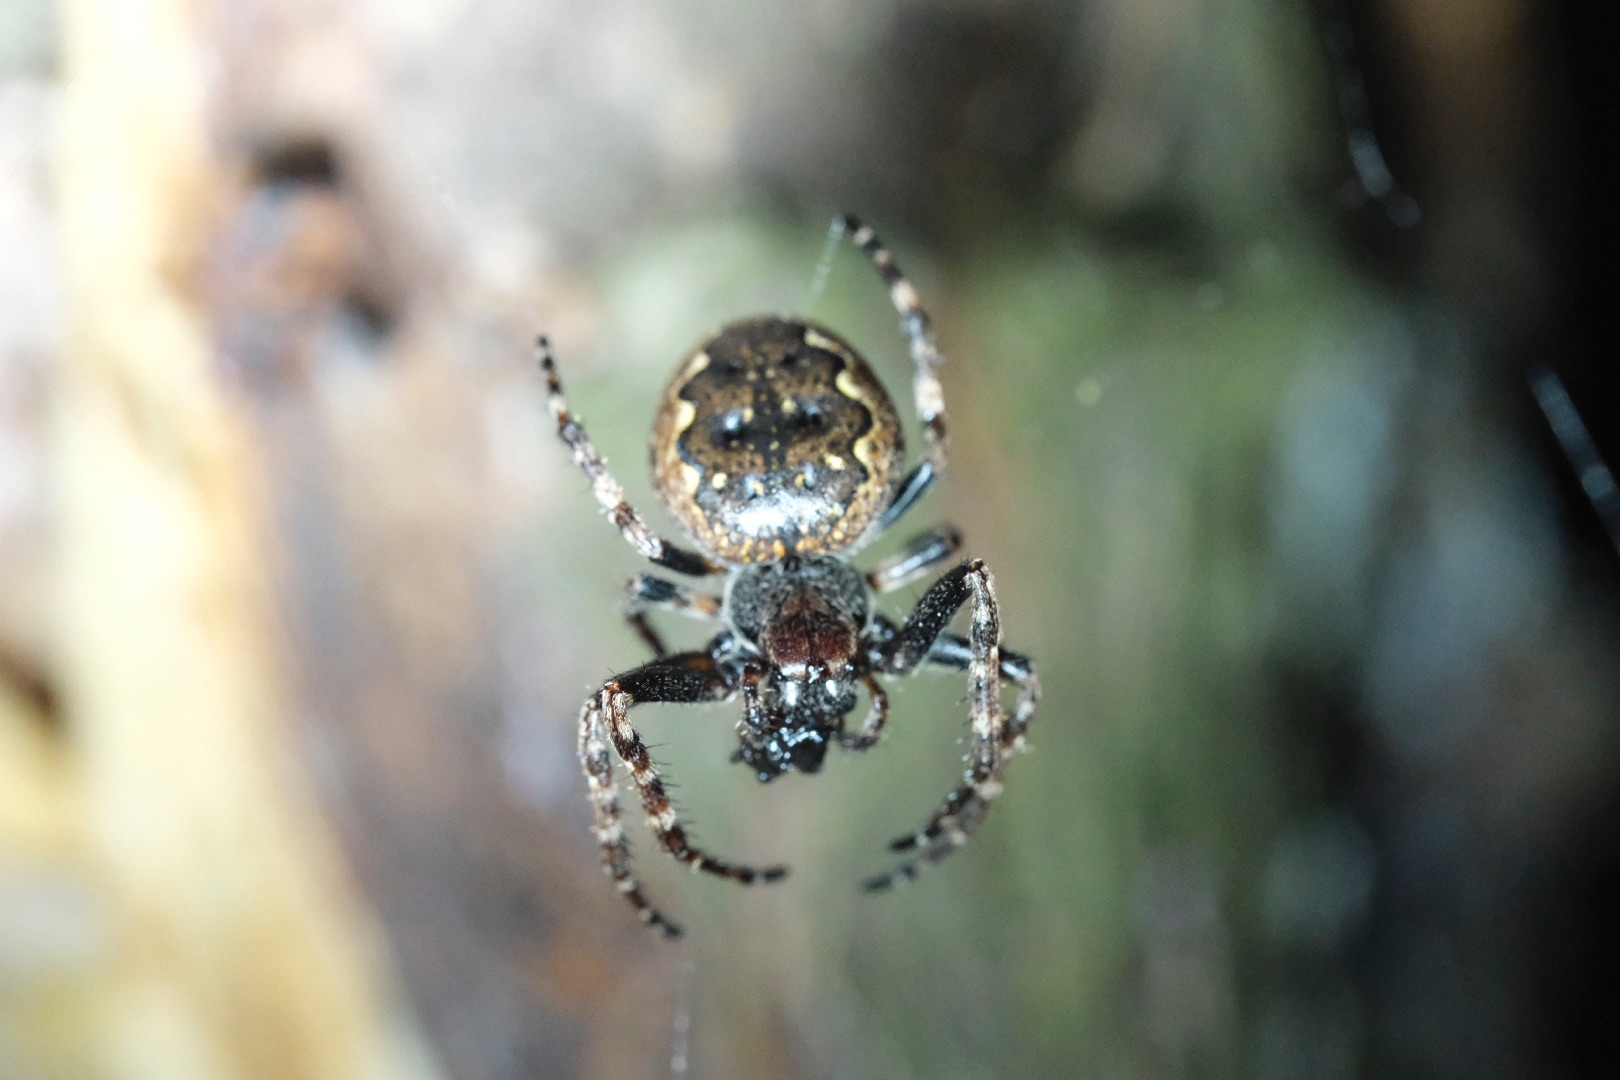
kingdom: Animalia
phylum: Arthropoda
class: Arachnida
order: Araneae
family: Araneidae
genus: Nuctenea
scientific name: Nuctenea umbratica
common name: Flad hjulspinder
